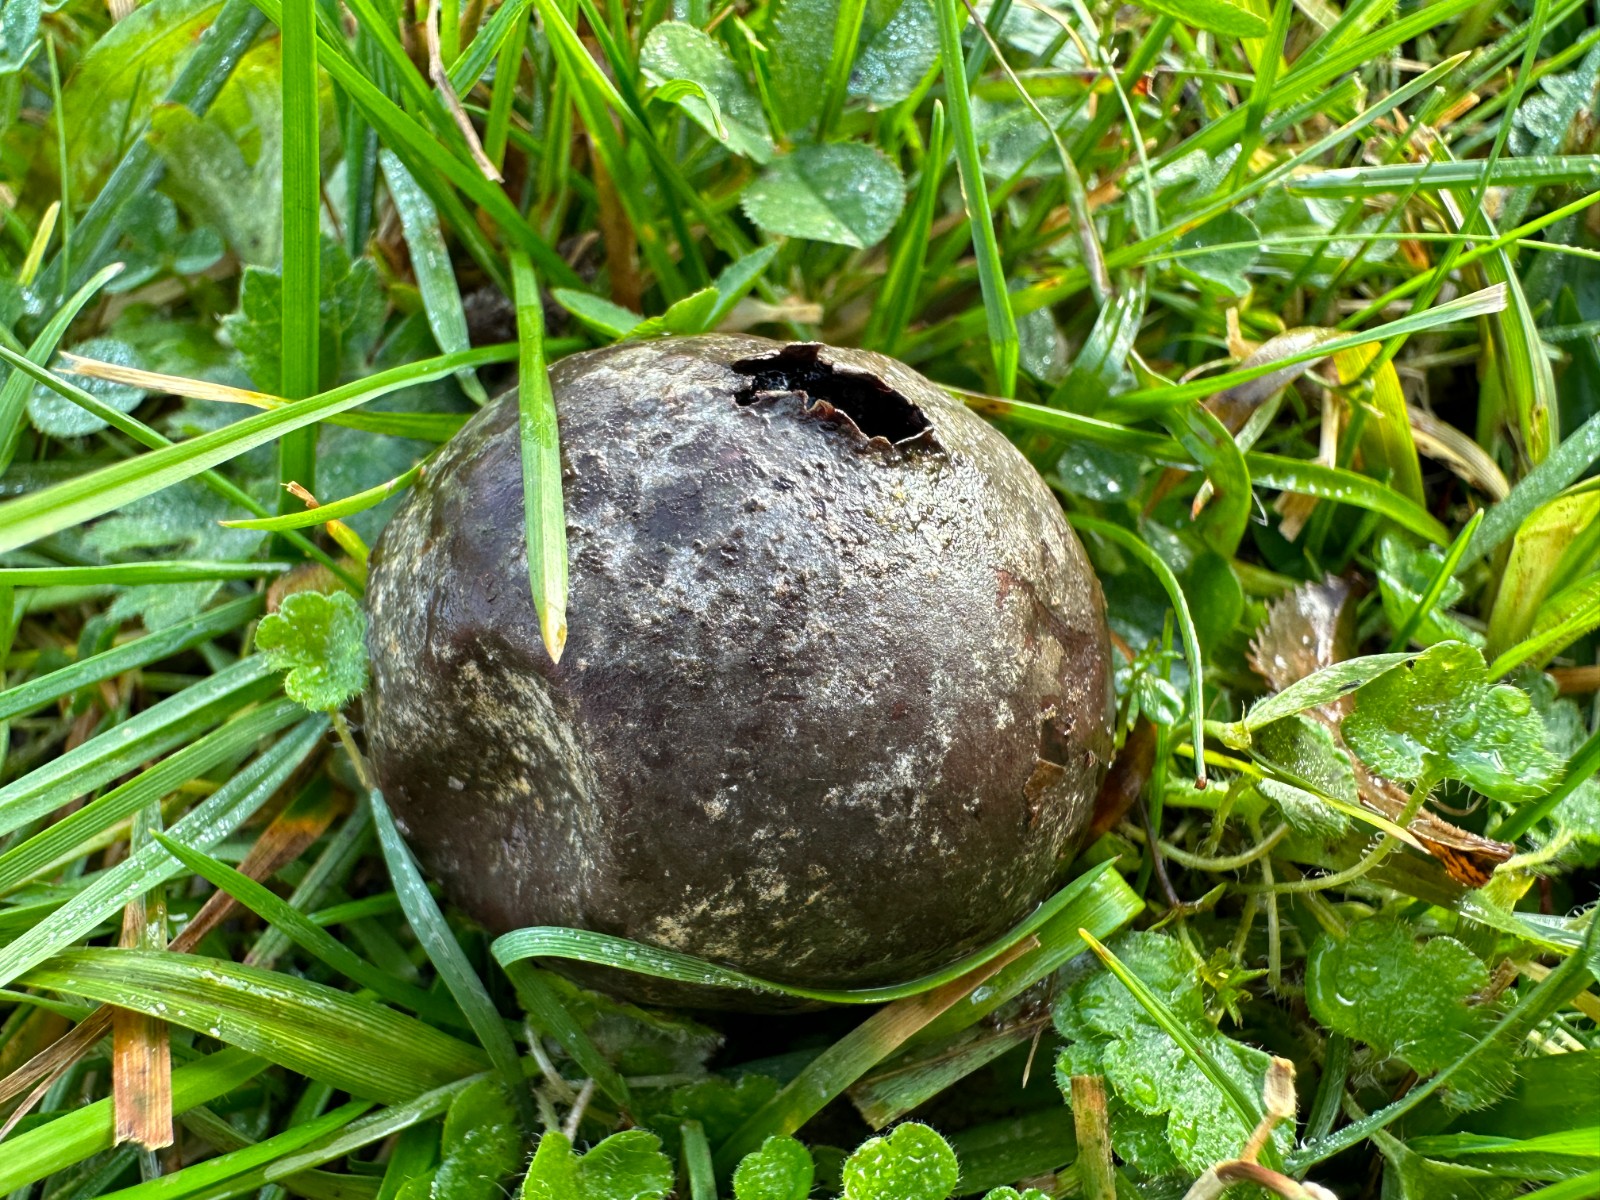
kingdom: Fungi
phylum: Basidiomycota
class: Agaricomycetes
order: Agaricales
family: Lycoperdaceae
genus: Bovista
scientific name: Bovista nigrescens
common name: sortagtig bovist
